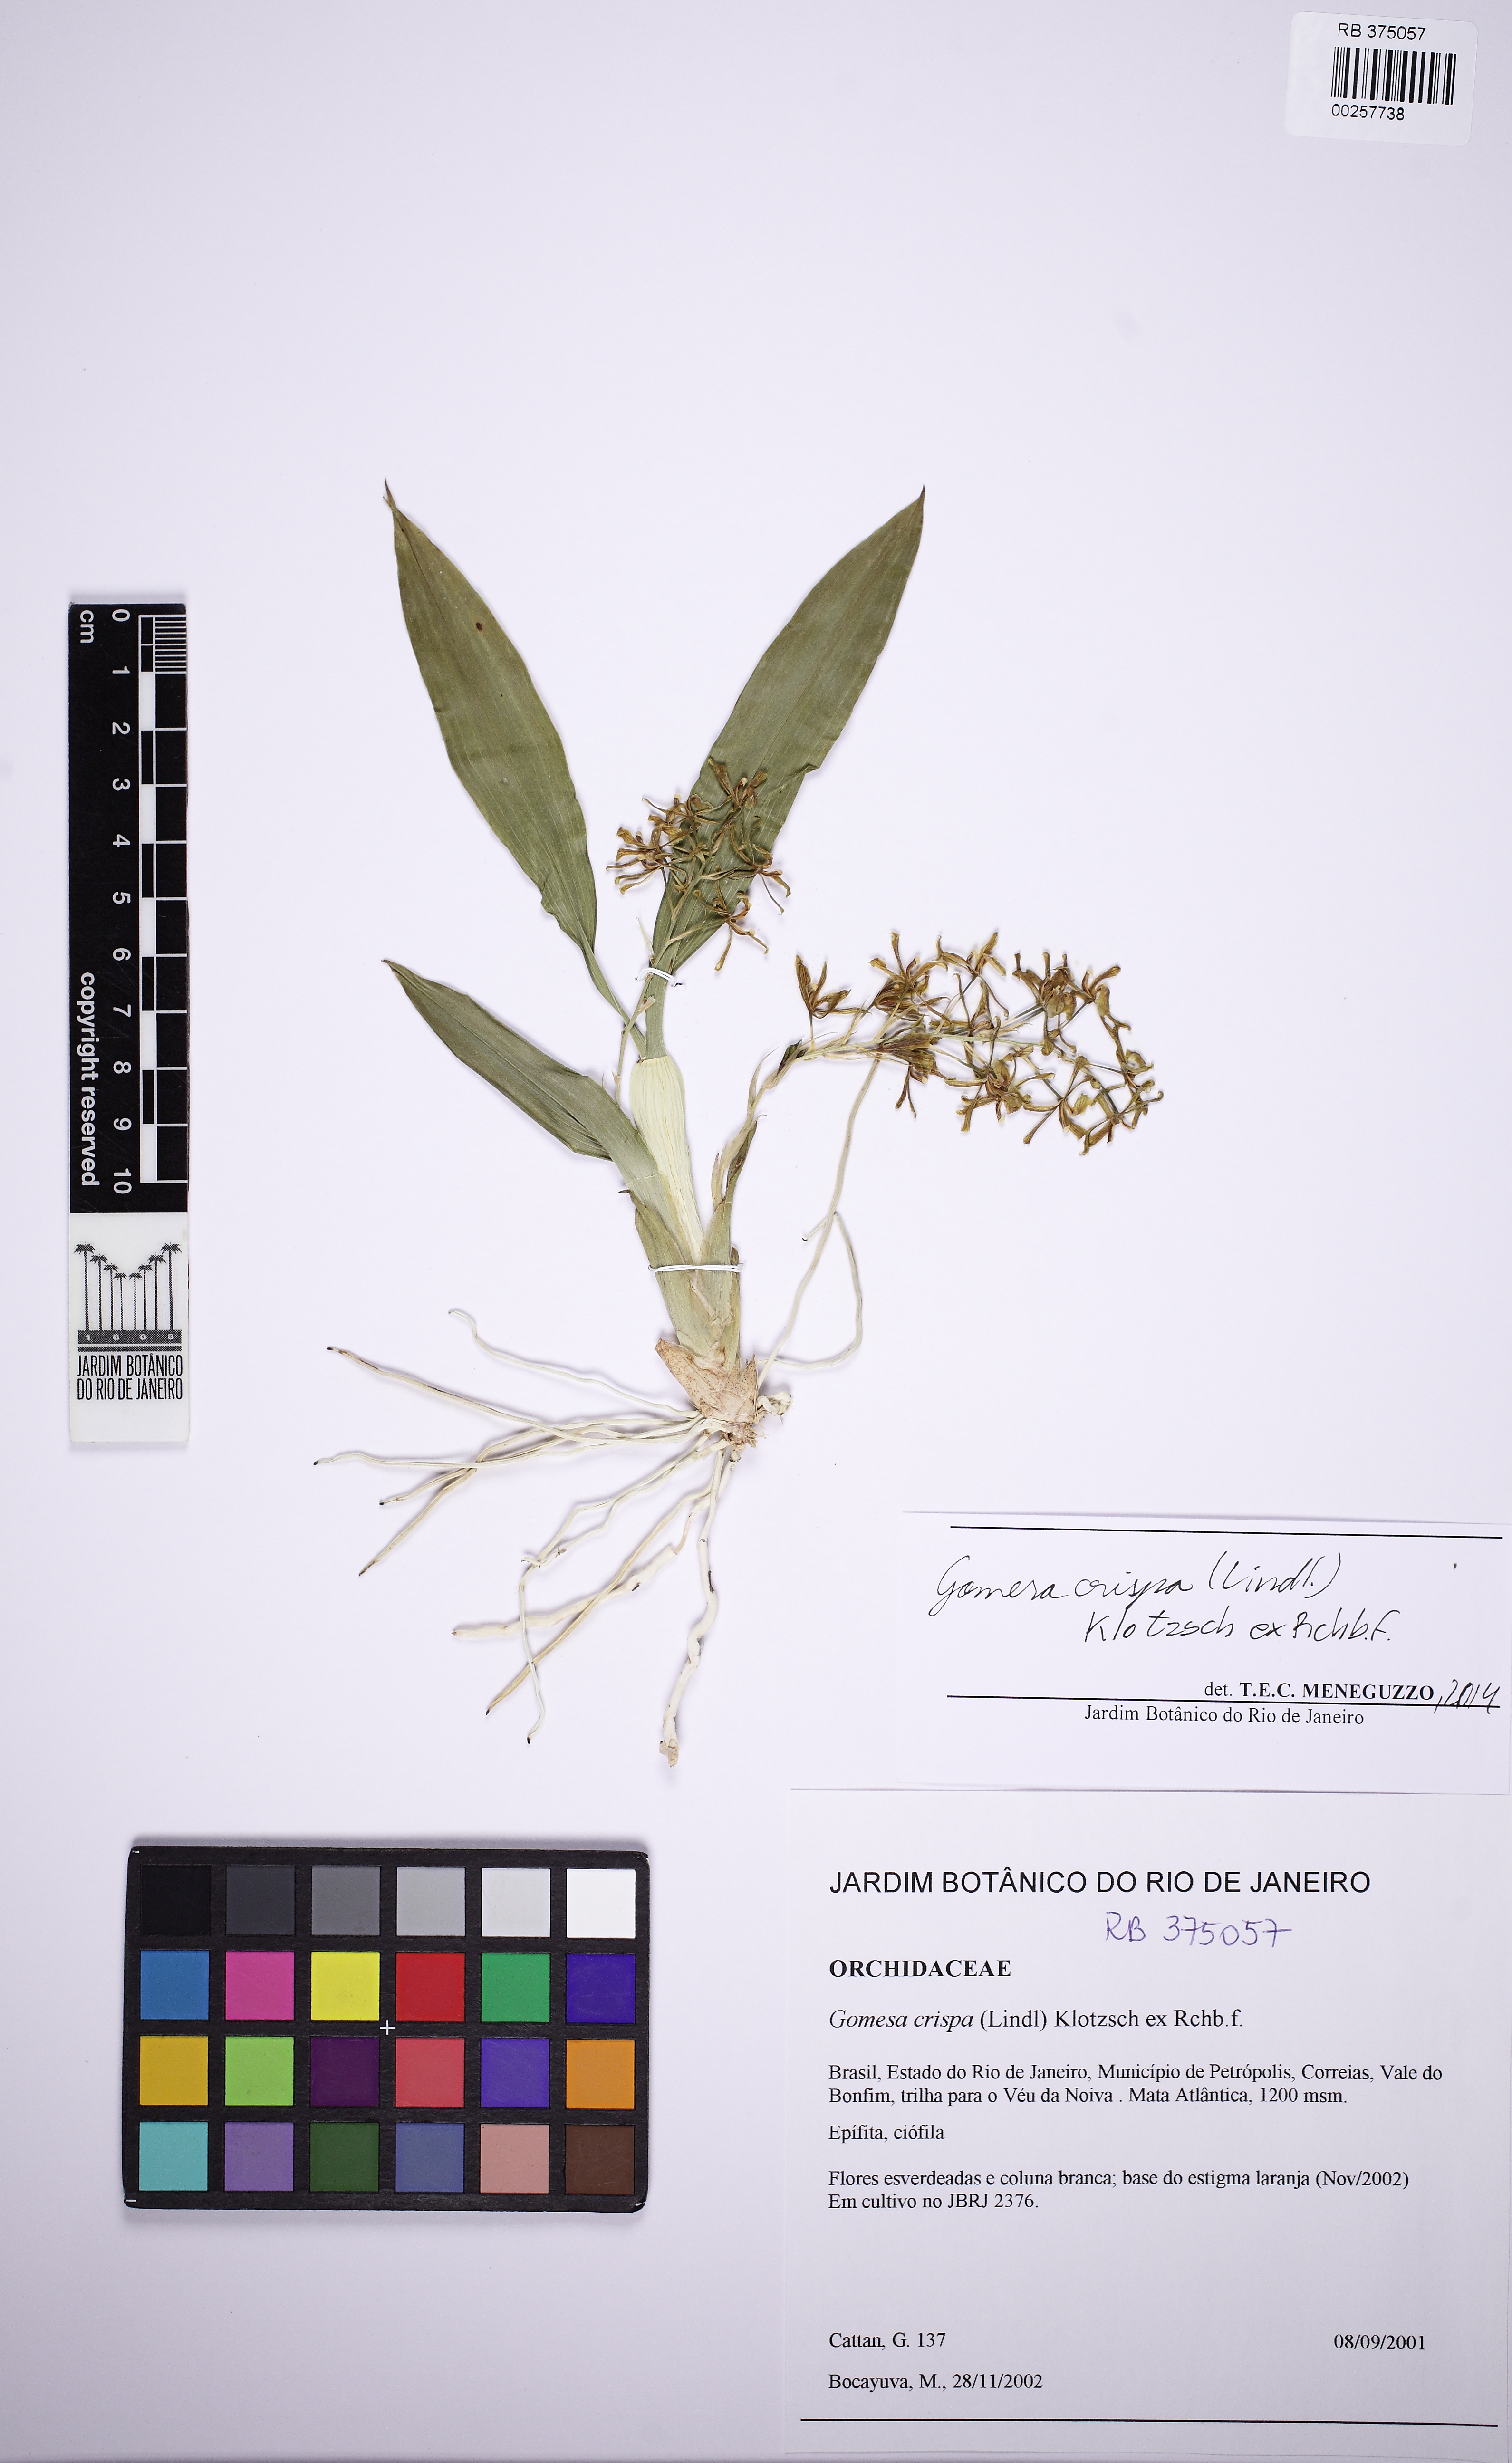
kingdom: Plantae
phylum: Tracheophyta
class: Liliopsida
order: Asparagales
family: Orchidaceae
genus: Gomesa
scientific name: Gomesa recurva
